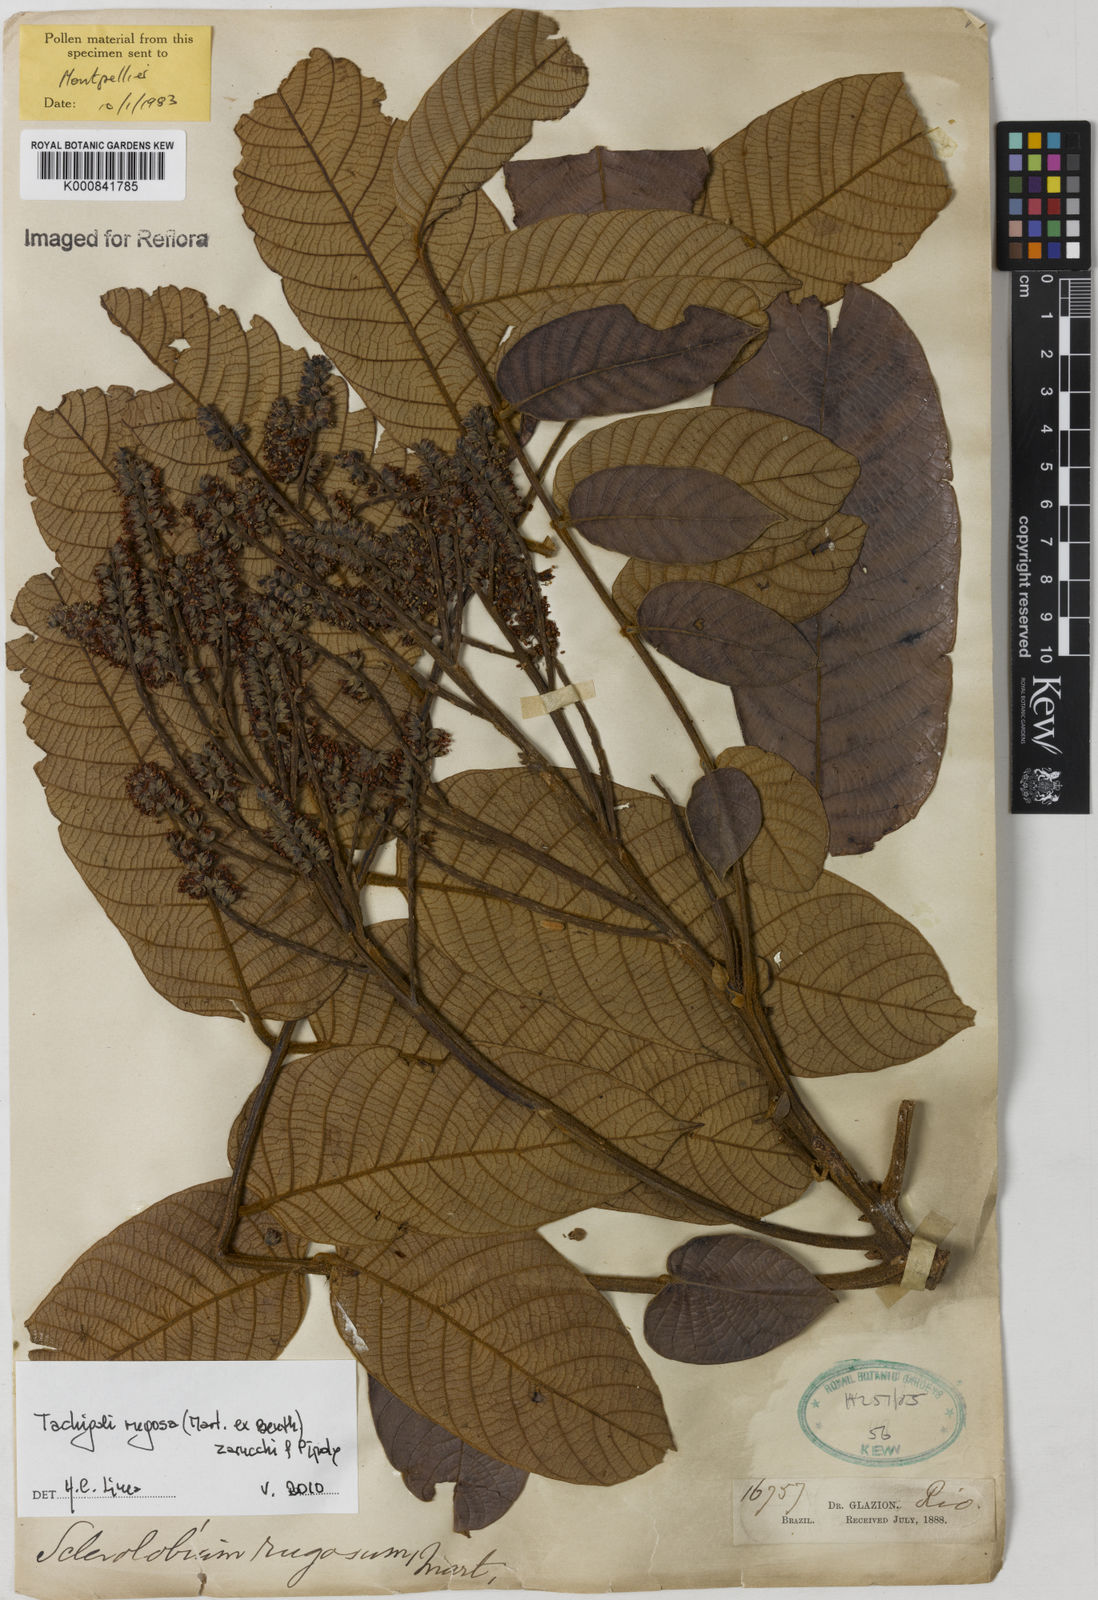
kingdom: Plantae
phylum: Tracheophyta
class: Magnoliopsida
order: Fabales
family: Fabaceae
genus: Tachigali
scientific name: Tachigali rugosa
